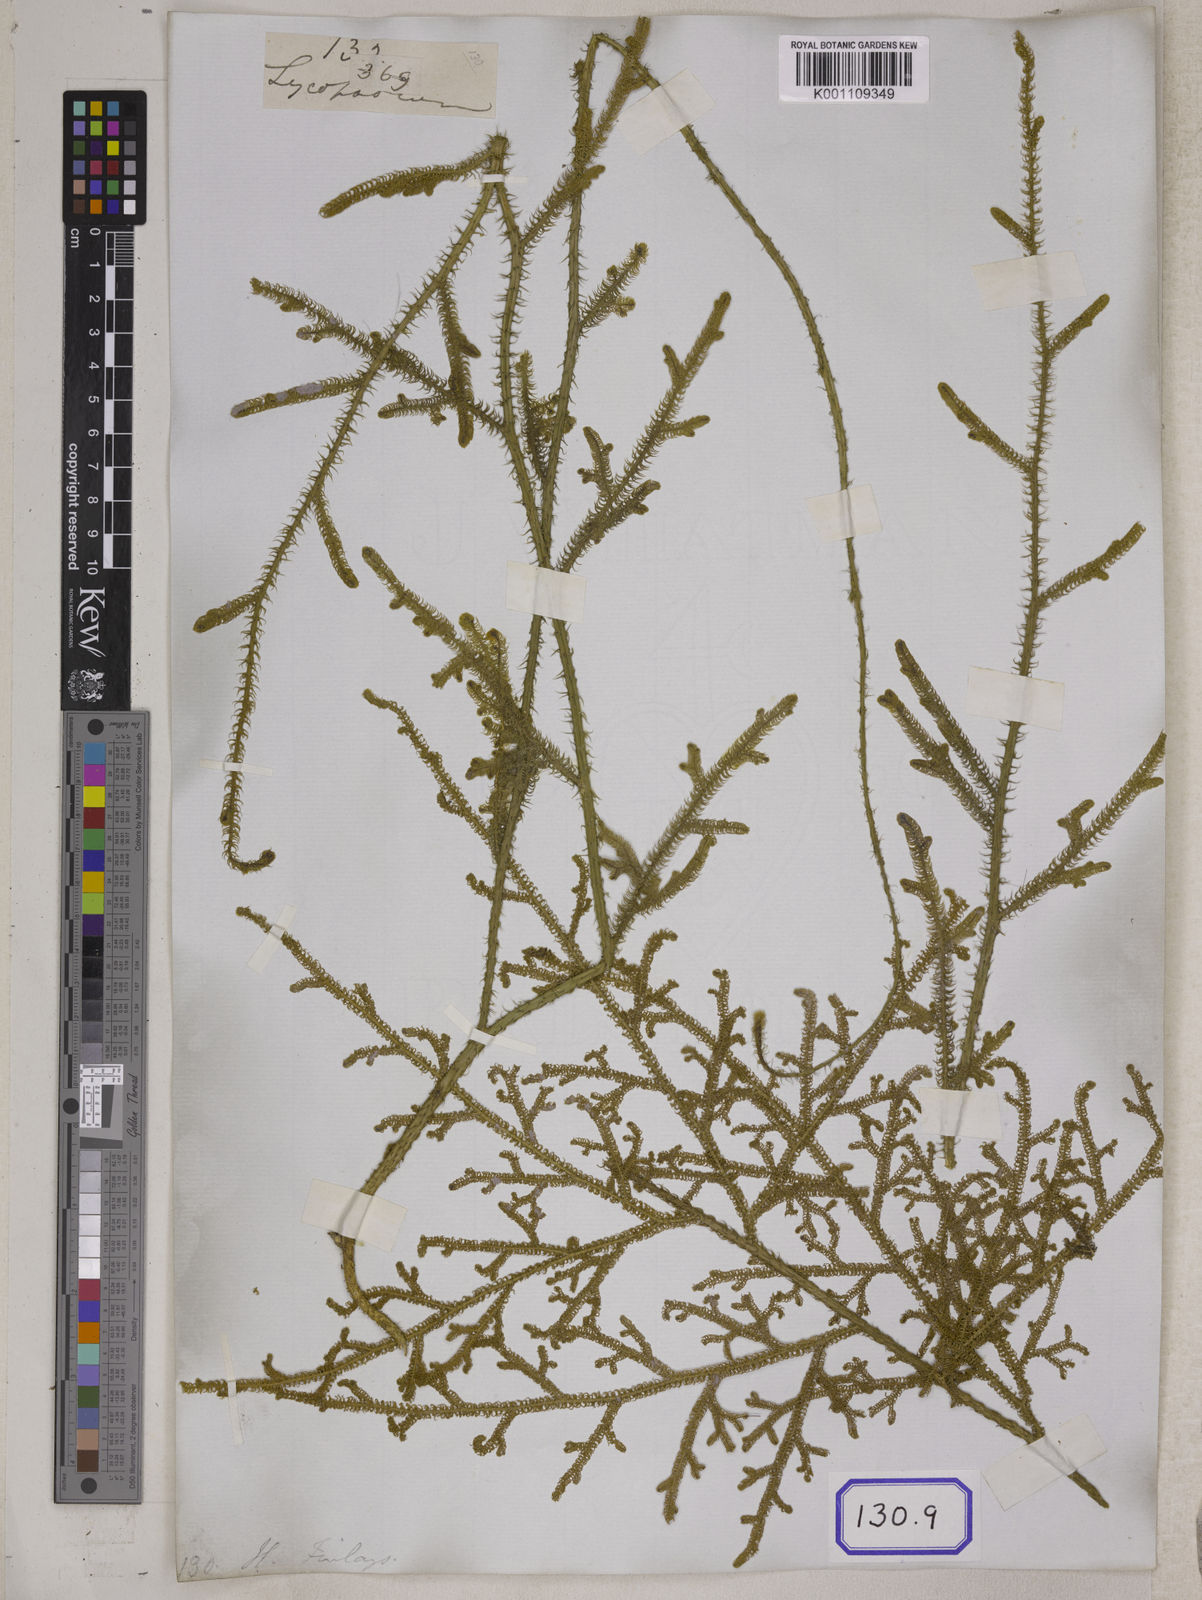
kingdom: Plantae
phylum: Tracheophyta
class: Lycopodiopsida
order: Lycopodiales
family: Lycopodiaceae
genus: Palhinhaea
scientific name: Palhinhaea cernua
